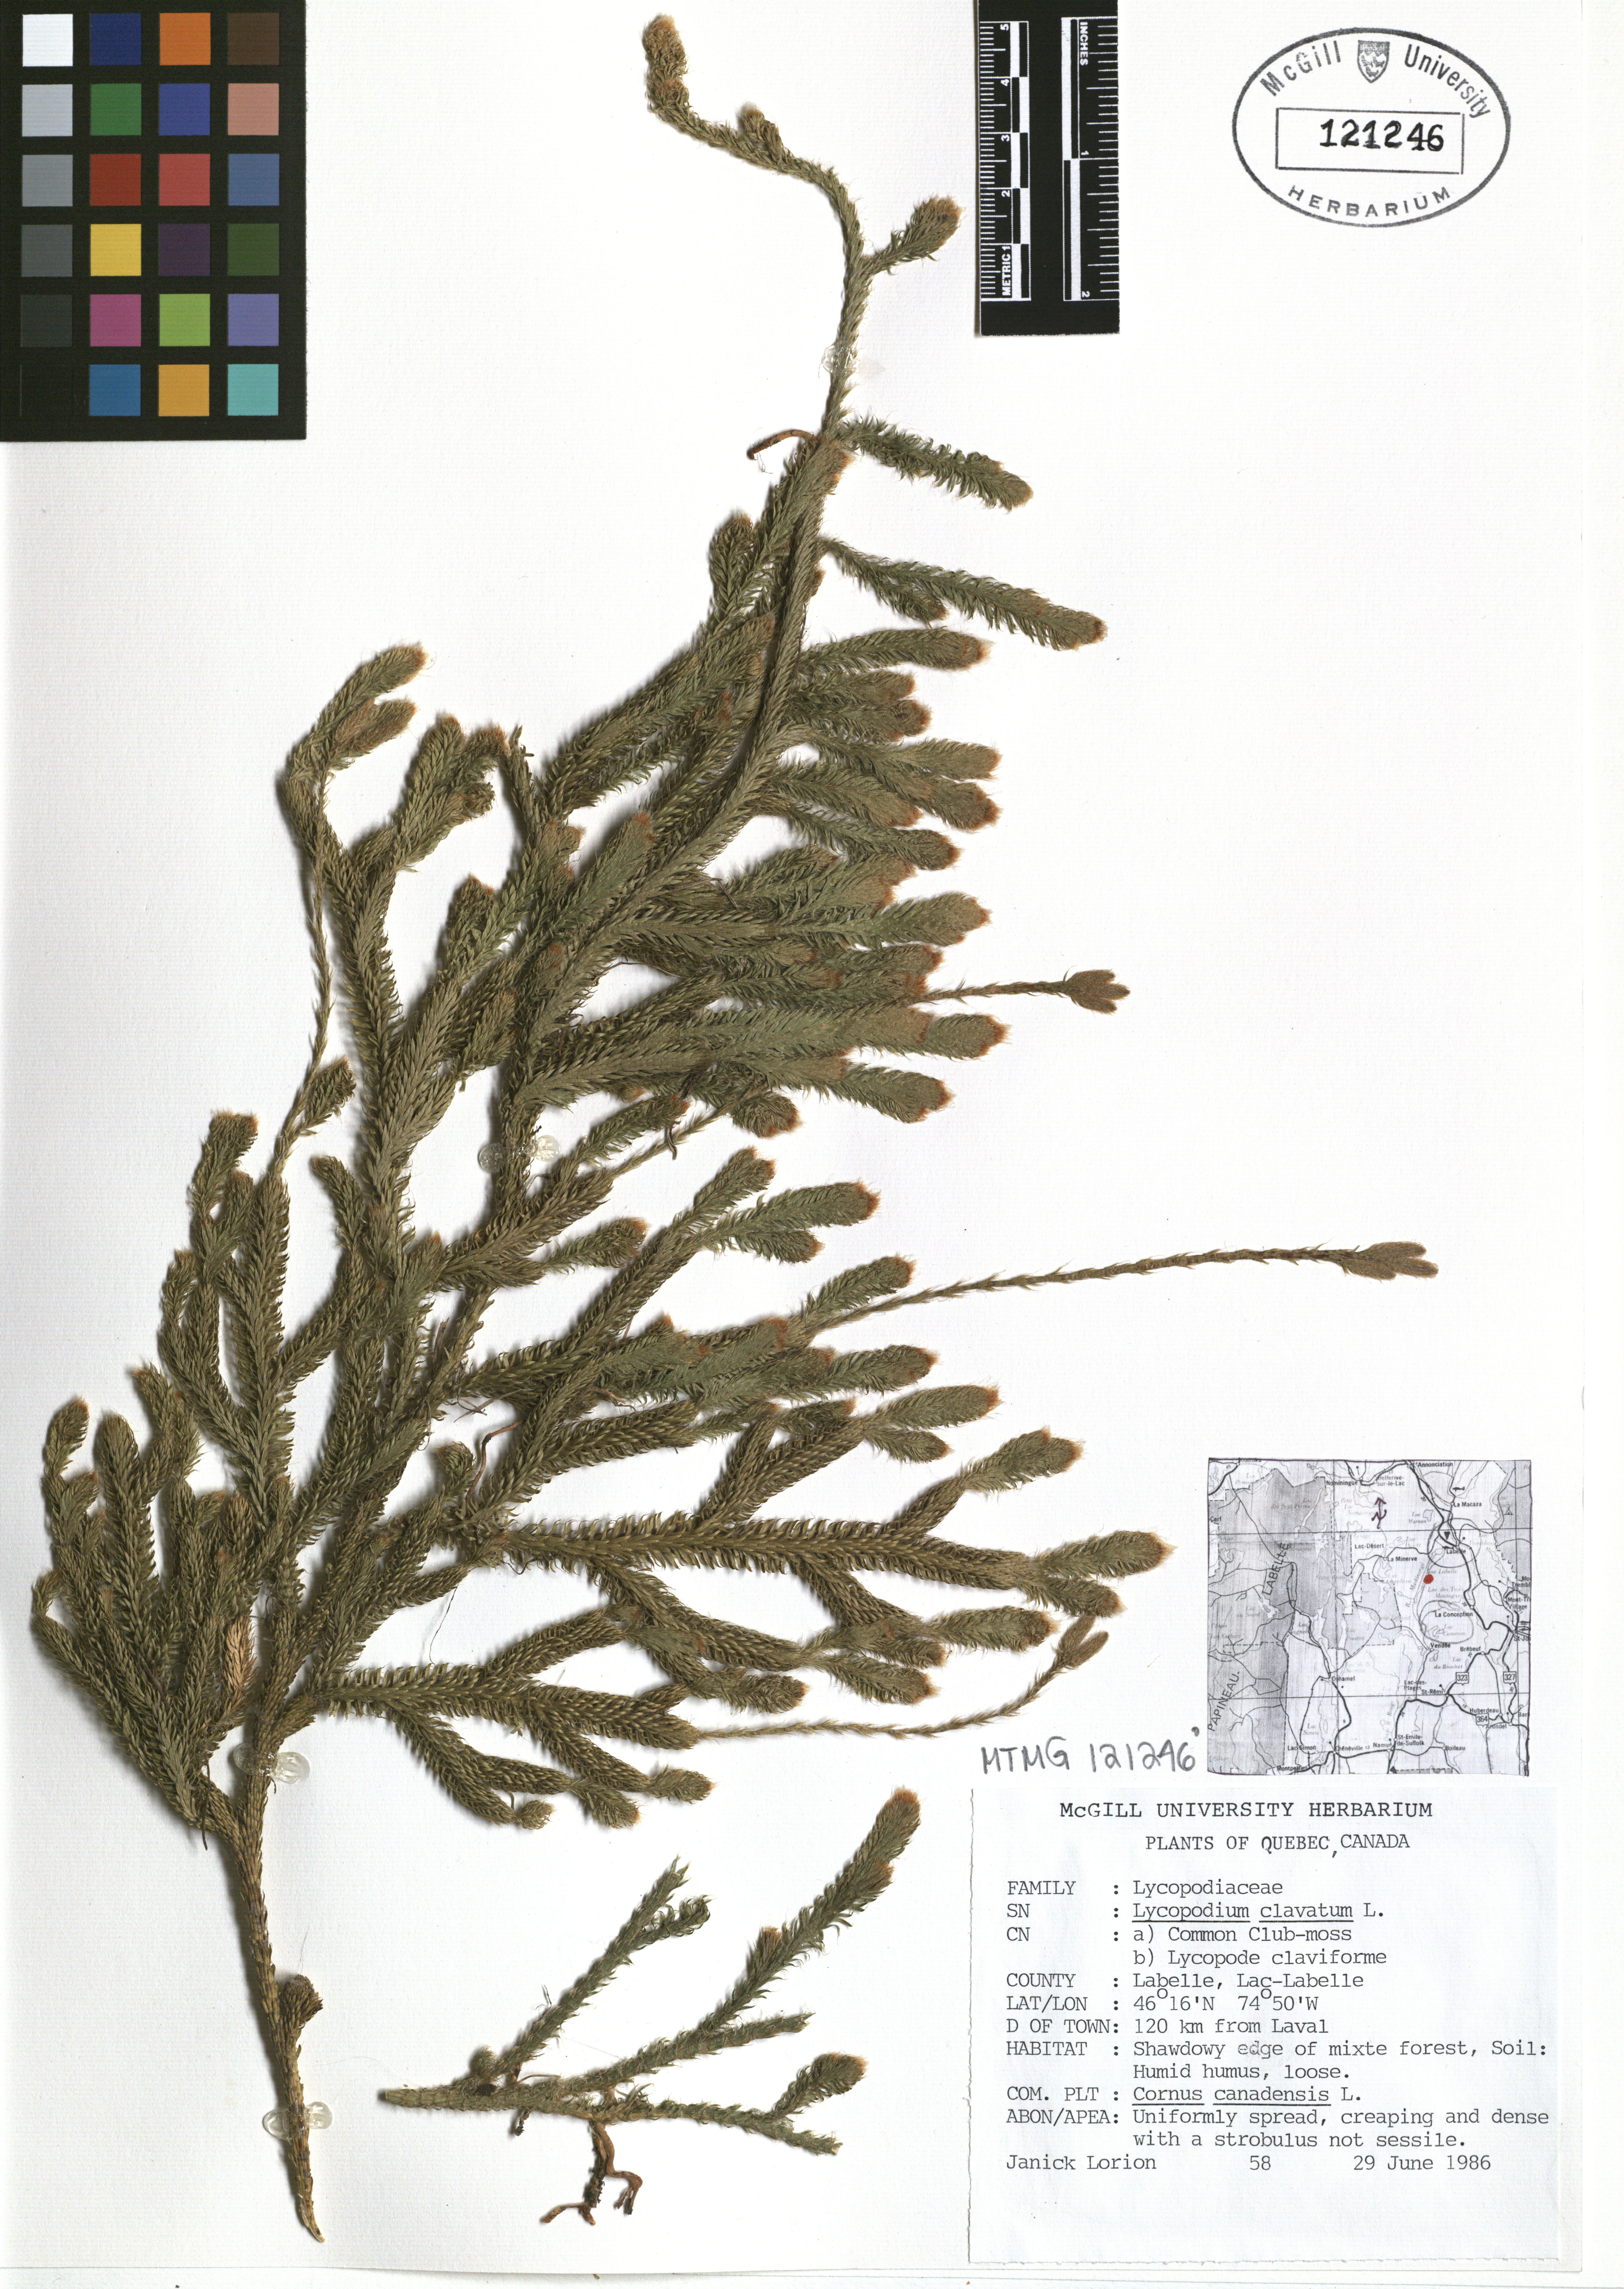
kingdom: Plantae
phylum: Tracheophyta
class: Lycopodiopsida
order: Lycopodiales
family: Lycopodiaceae
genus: Lycopodium
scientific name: Lycopodium clavatum
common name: Stag's-horn clubmoss
